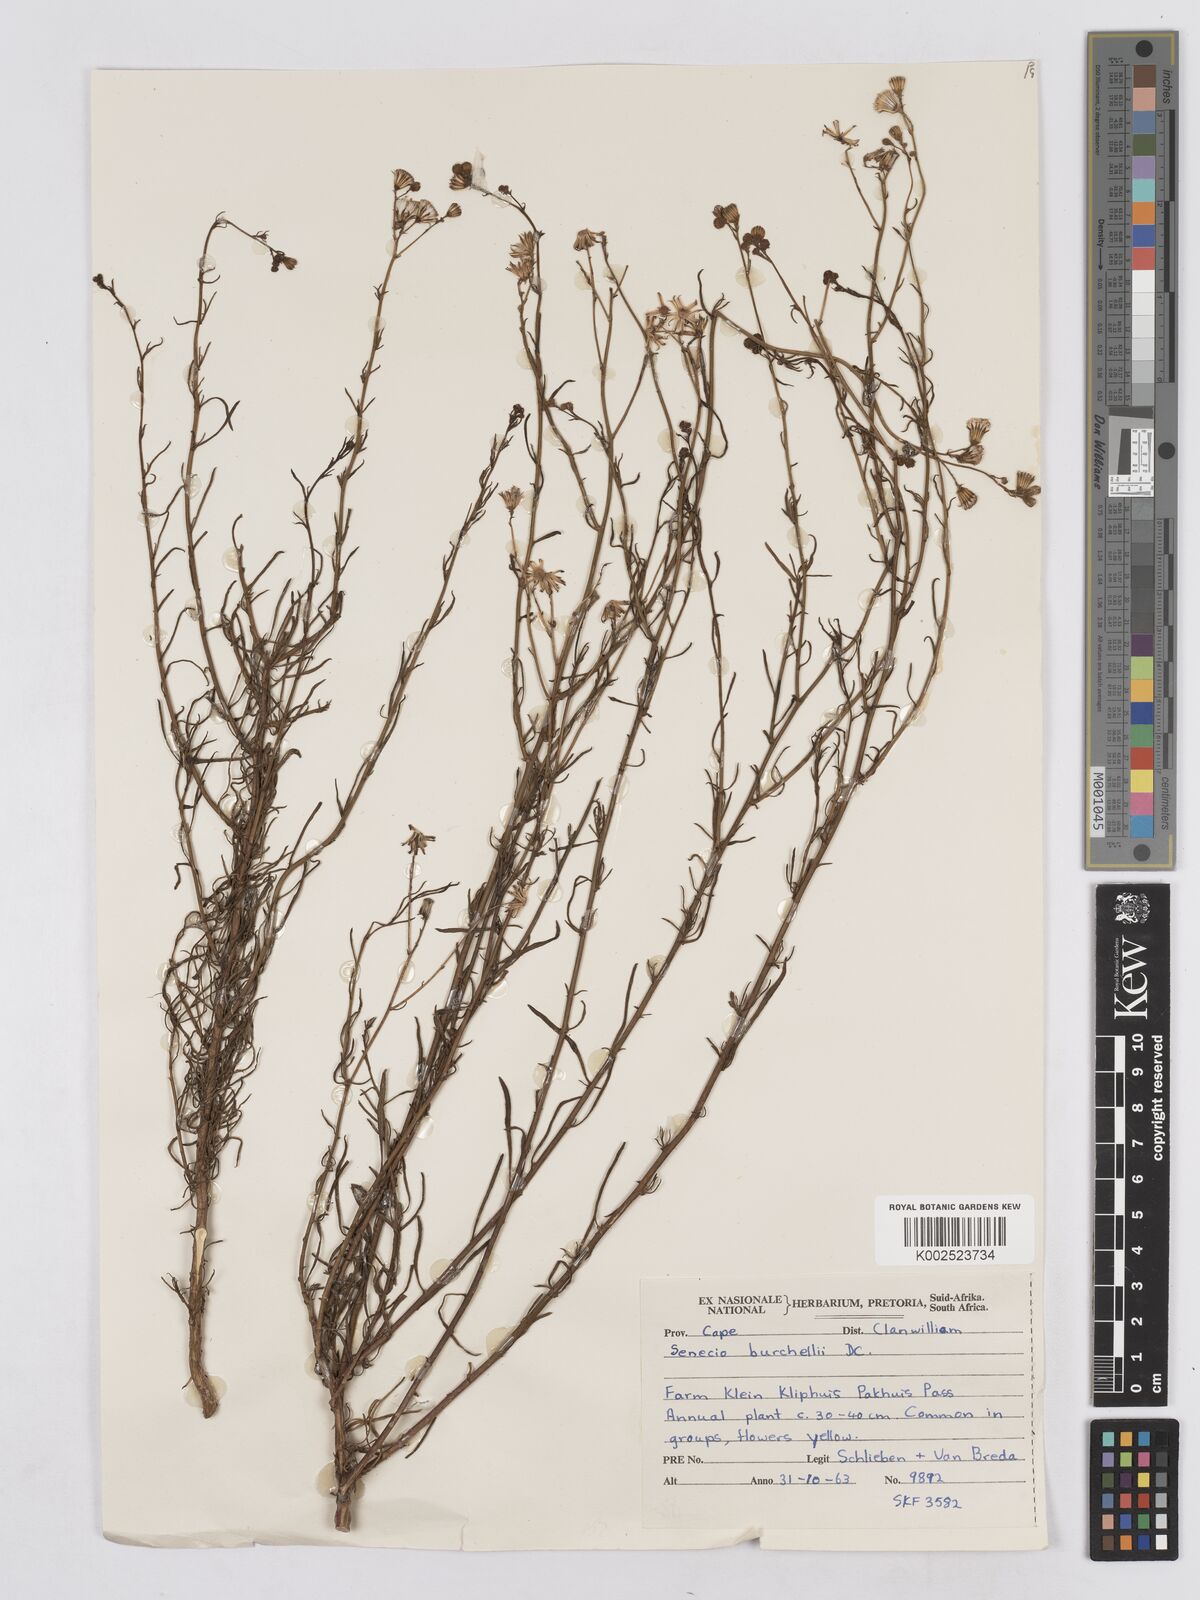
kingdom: Plantae
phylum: Tracheophyta
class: Magnoliopsida
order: Asterales
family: Asteraceae
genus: Senecio
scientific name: Senecio burchellii
